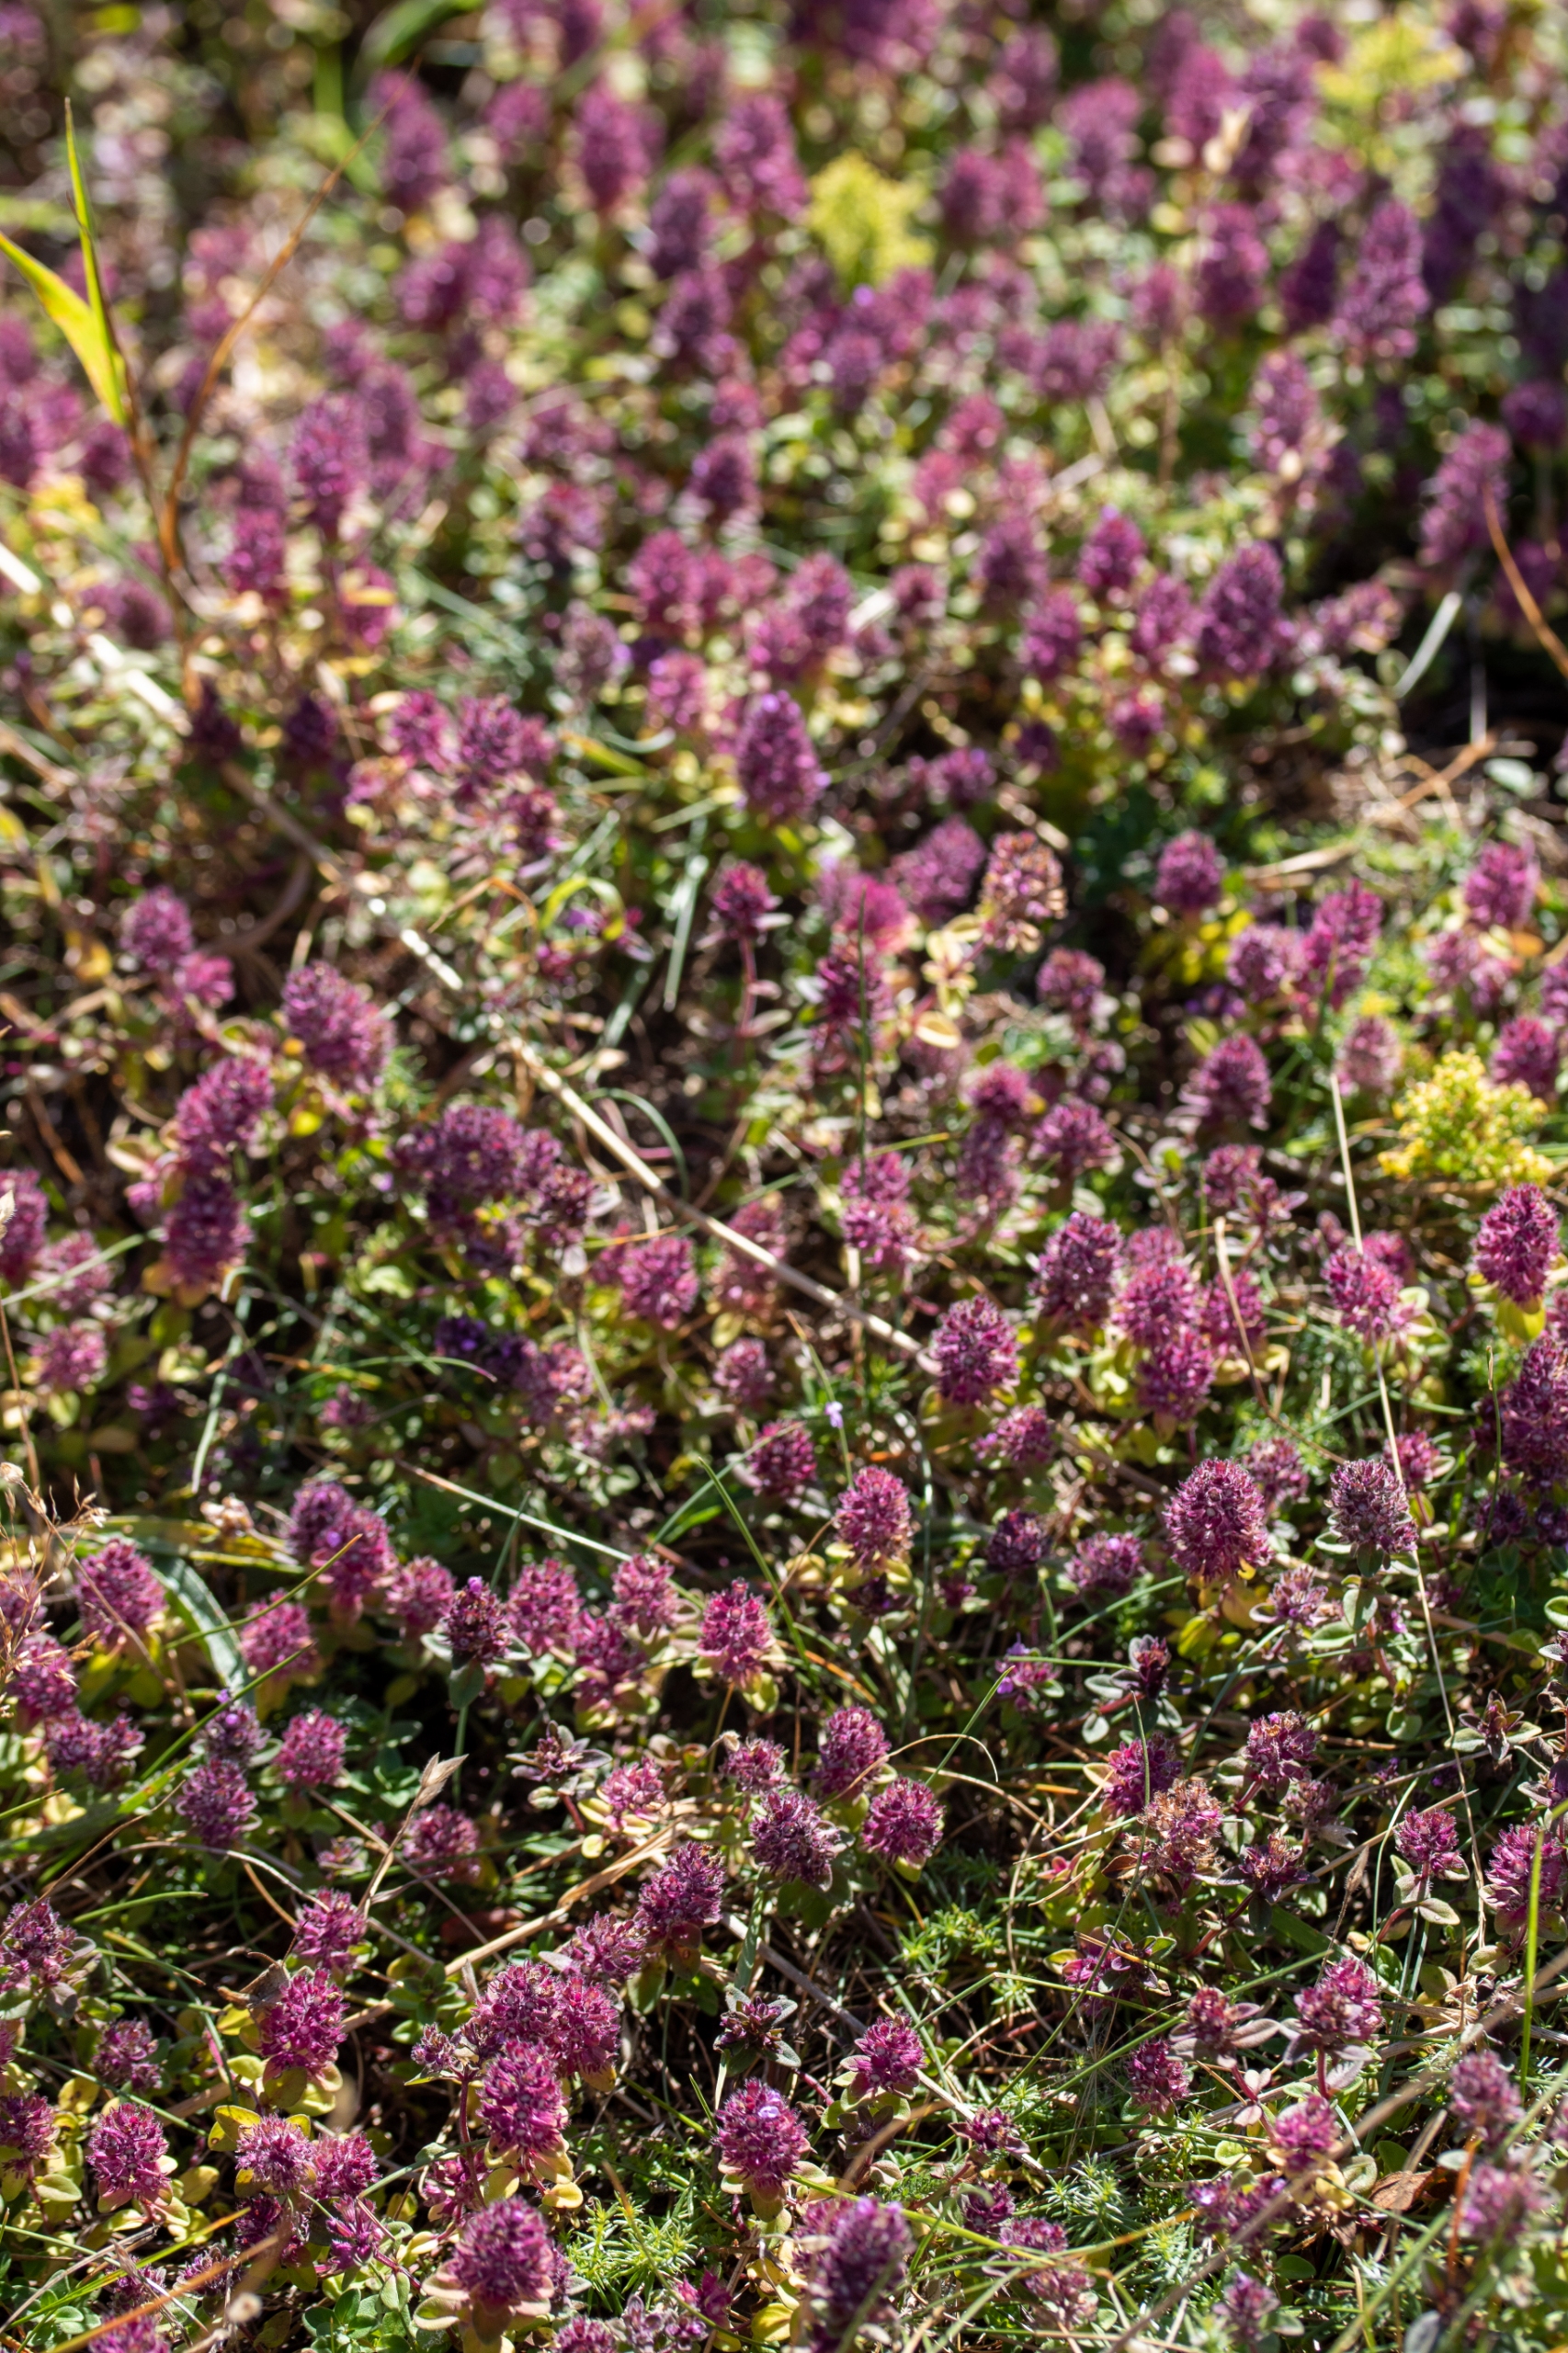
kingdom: Plantae
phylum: Tracheophyta
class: Magnoliopsida
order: Lamiales
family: Lamiaceae
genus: Thymus
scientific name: Thymus pulegioides
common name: Bredbladet timian
